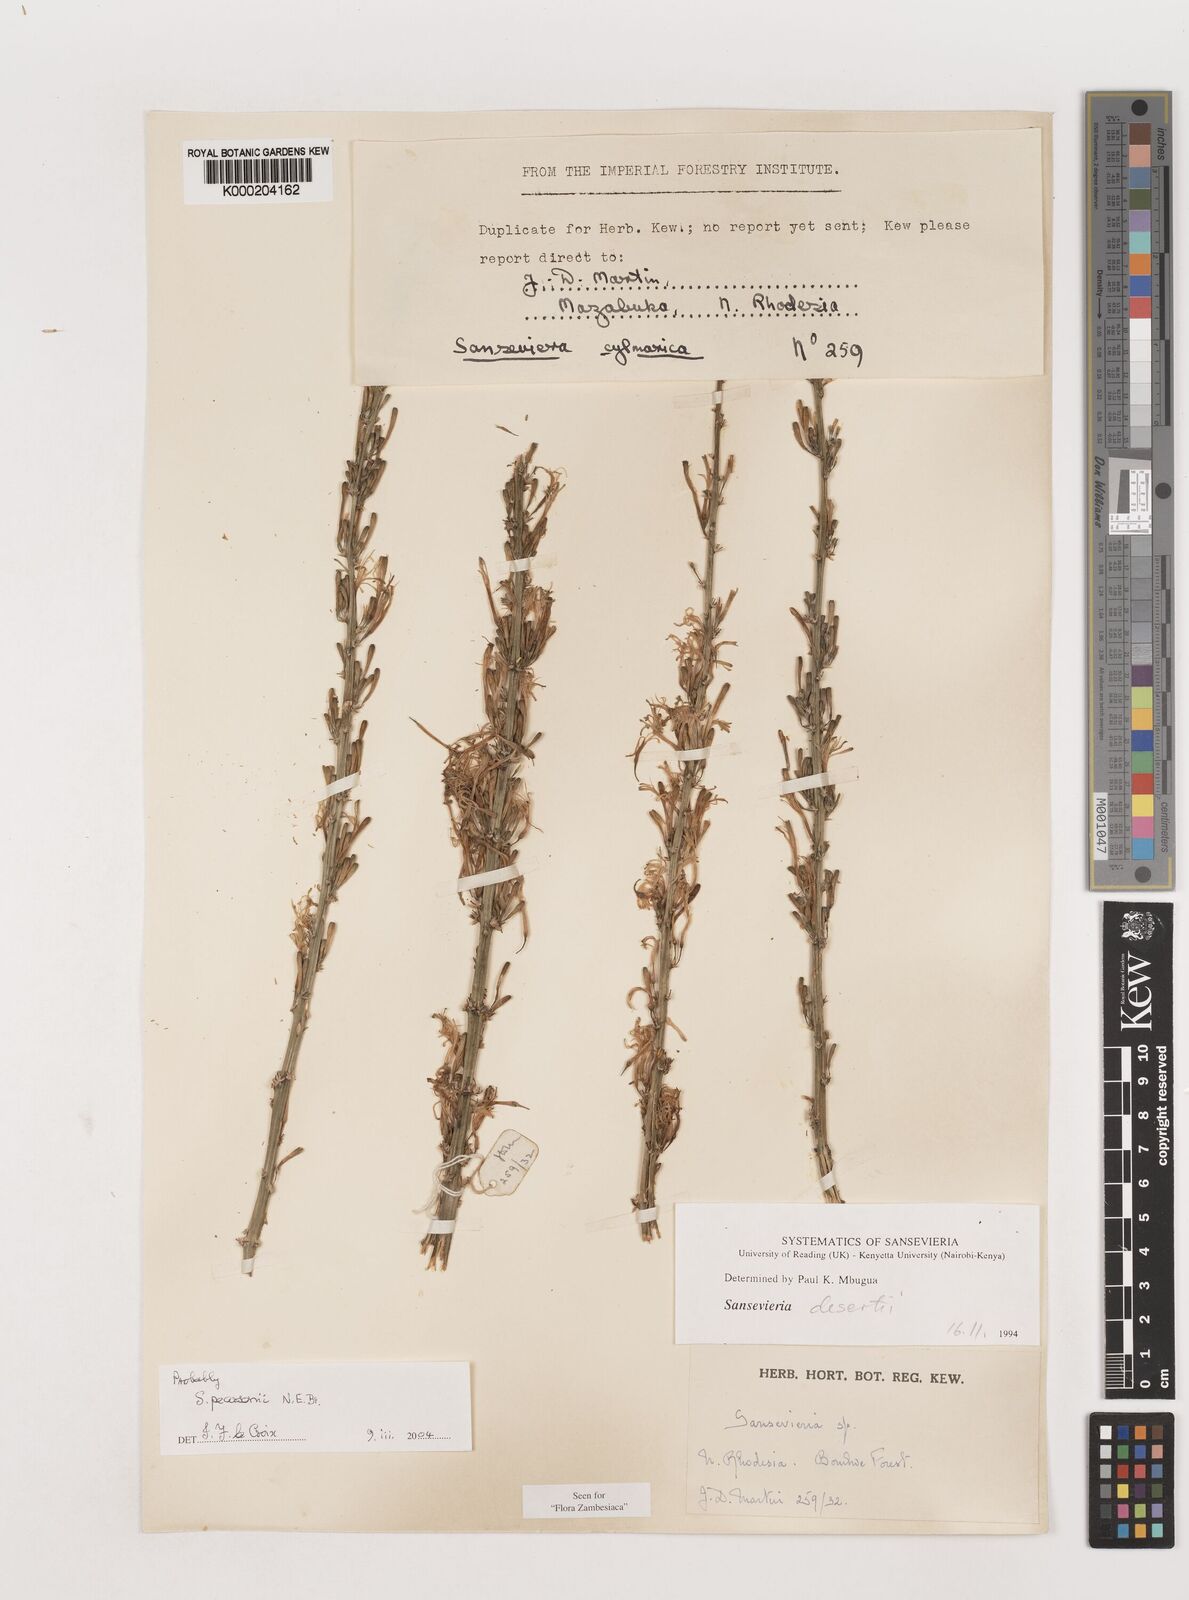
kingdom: Plantae
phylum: Tracheophyta
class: Liliopsida
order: Asparagales
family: Asparagaceae
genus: Dracaena
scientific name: Dracaena pearsonii
